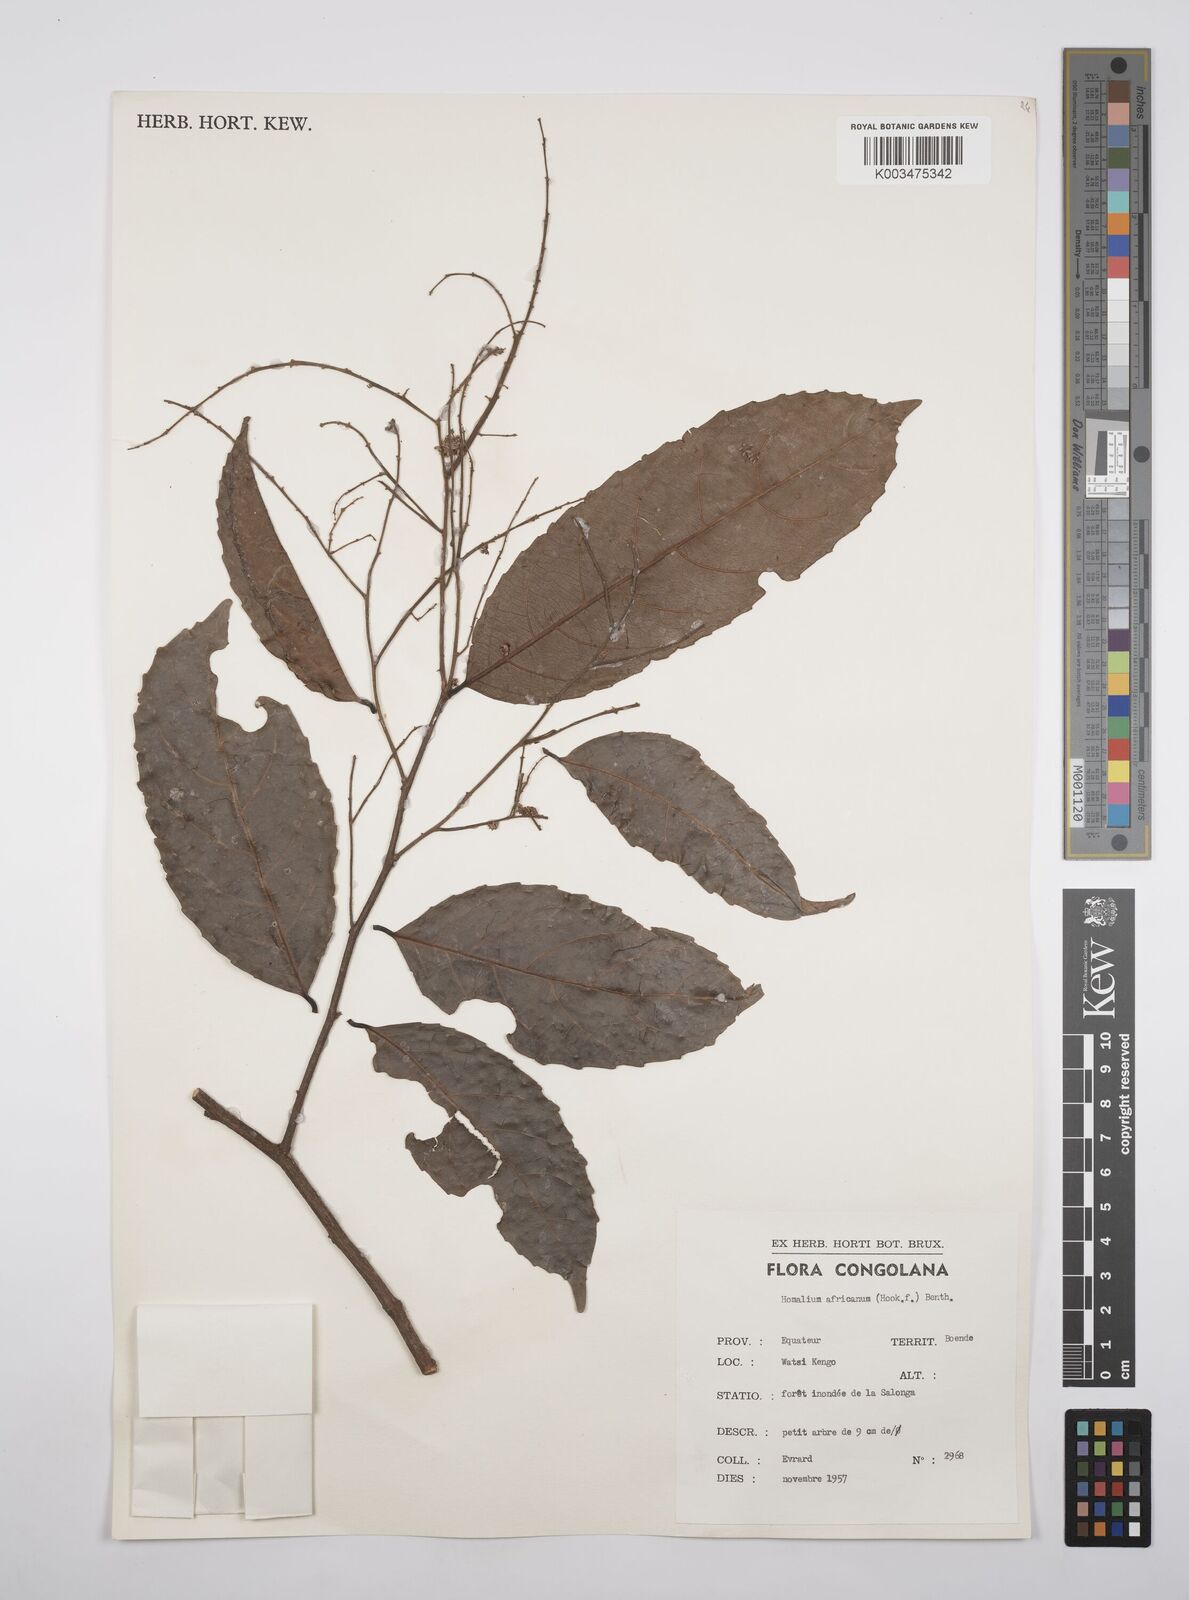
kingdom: Plantae
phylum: Tracheophyta
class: Magnoliopsida
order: Malpighiales
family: Salicaceae
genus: Homalium
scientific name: Homalium africanum
